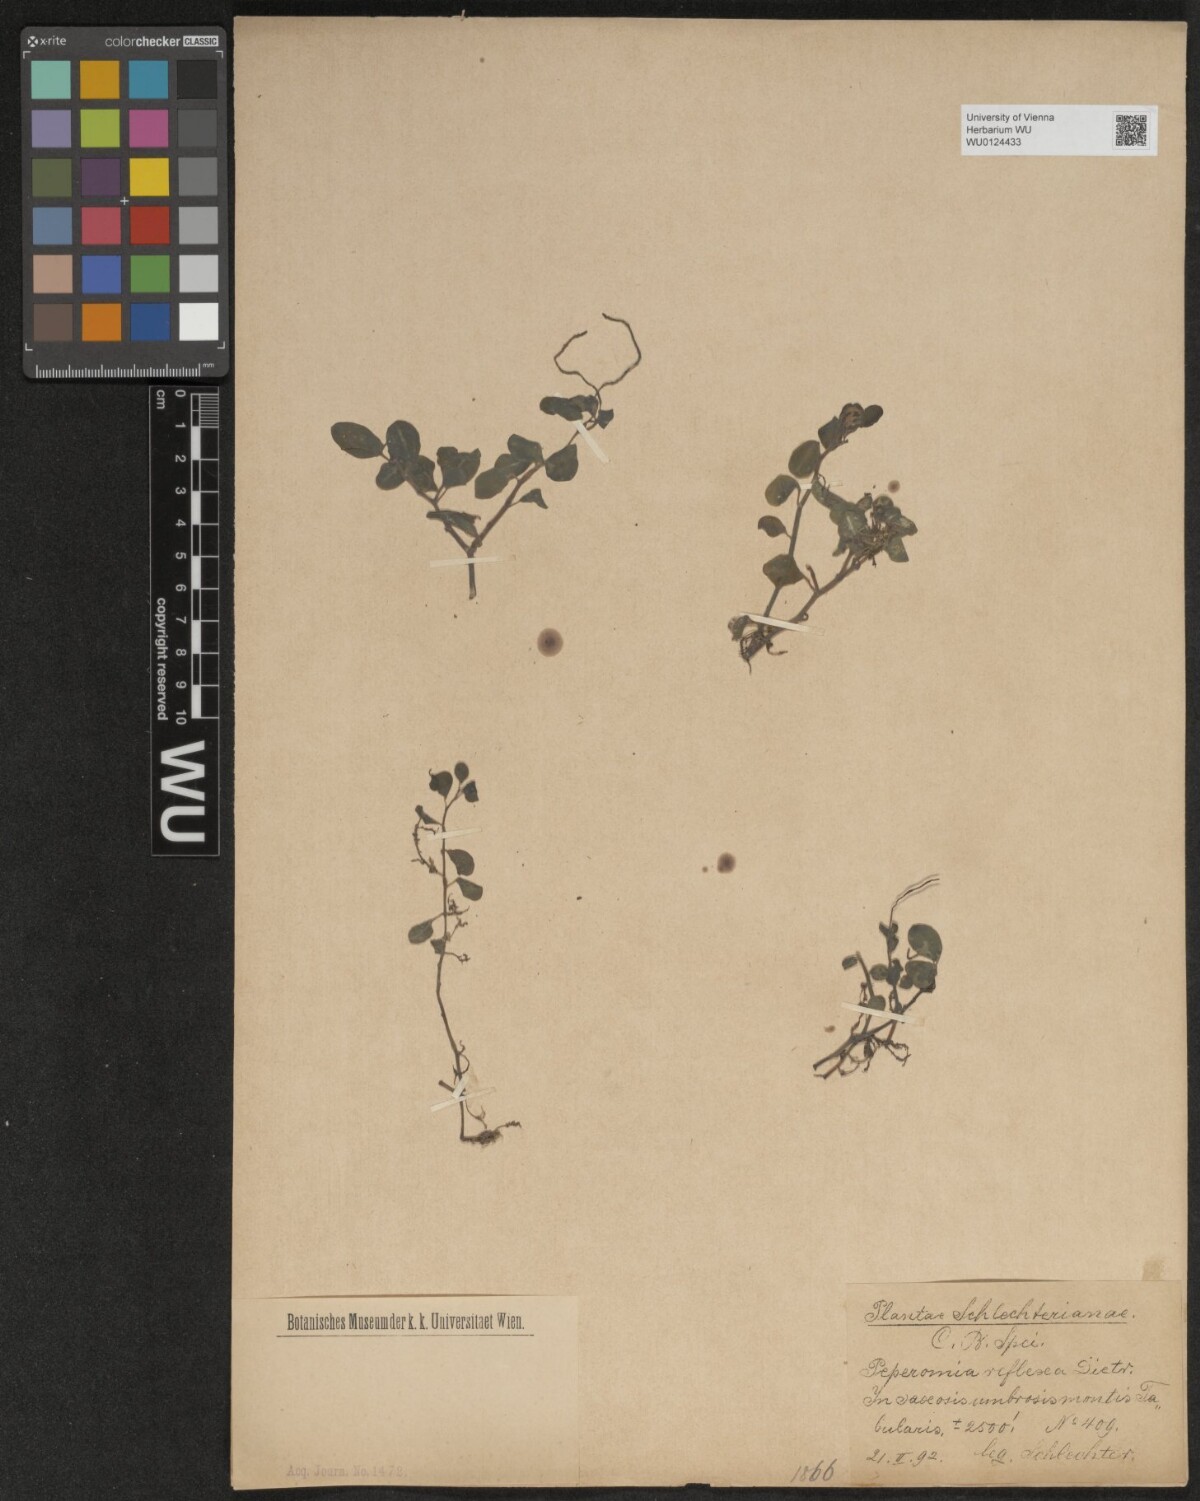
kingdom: Plantae
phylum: Tracheophyta
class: Magnoliopsida
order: Piperales
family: Piperaceae
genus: Peperomia
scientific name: Peperomia tetraphylla
